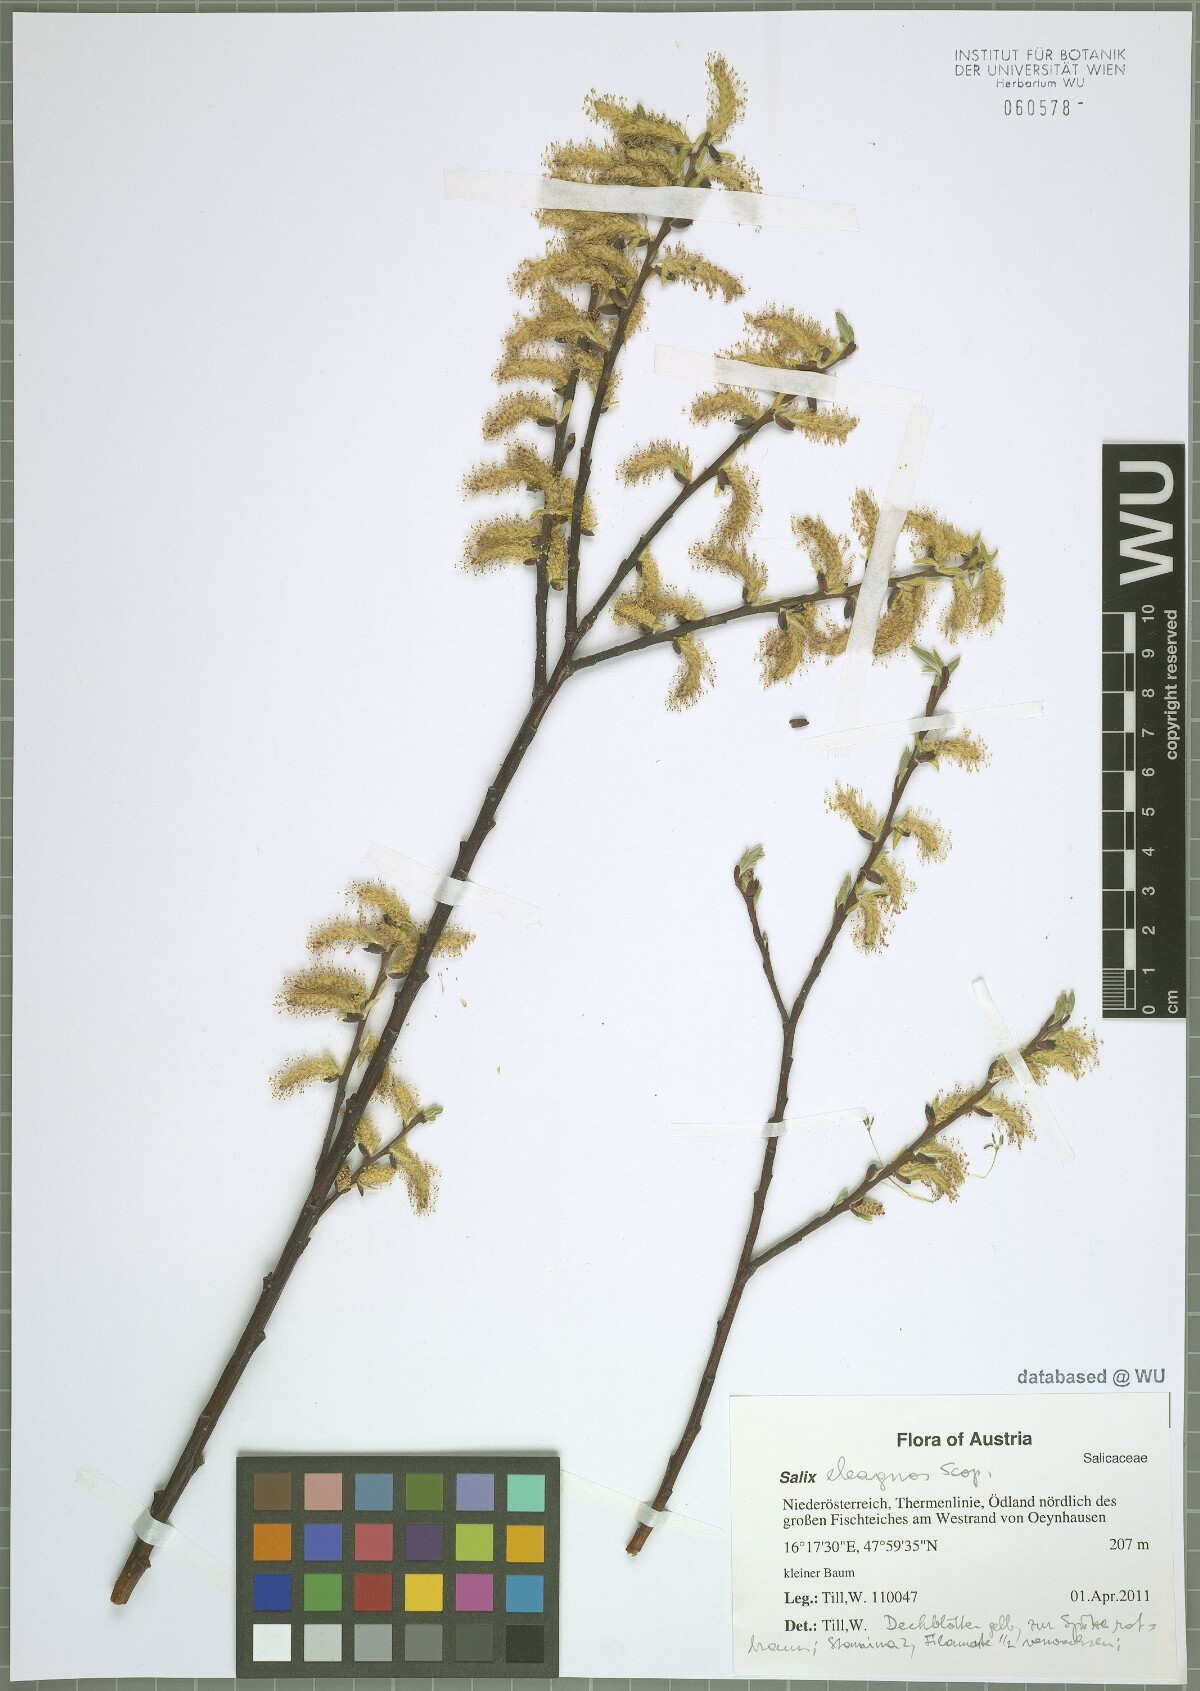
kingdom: Plantae
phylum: Tracheophyta
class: Magnoliopsida
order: Malpighiales
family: Salicaceae
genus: Salix
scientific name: Salix eleagnos
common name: Elaeagnus willow
